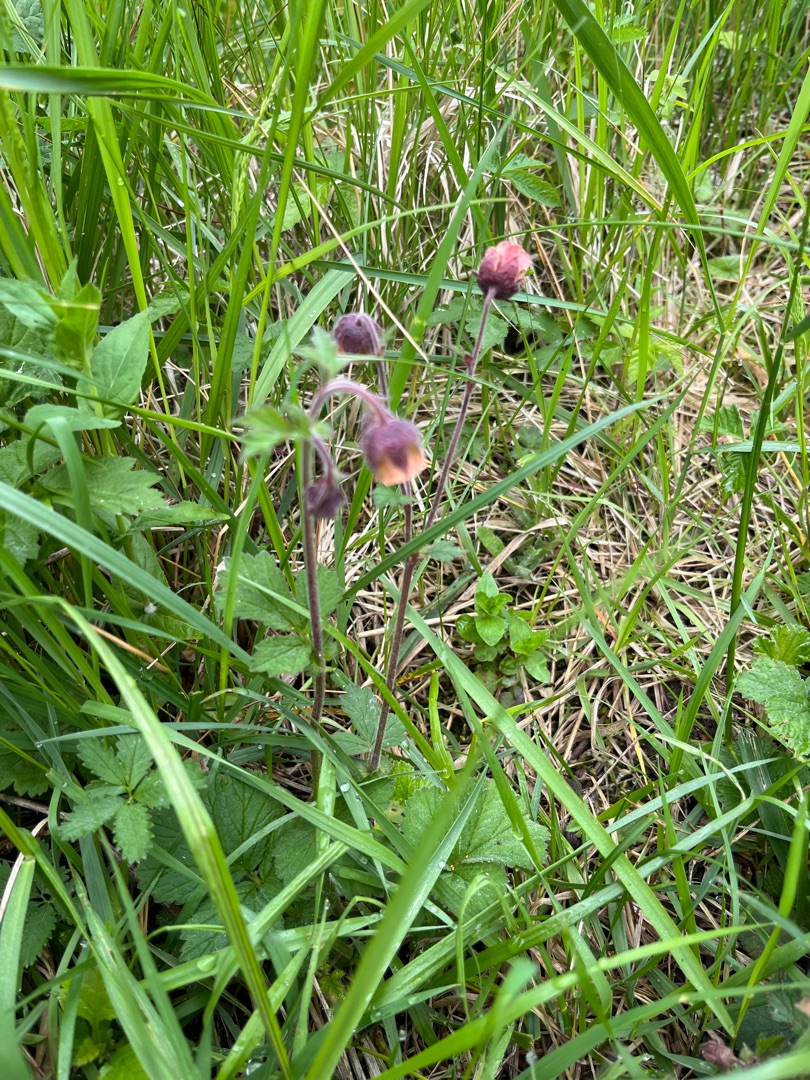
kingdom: Plantae
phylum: Tracheophyta
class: Magnoliopsida
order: Rosales
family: Rosaceae
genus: Geum
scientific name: Geum rivale
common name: Eng-nellikerod
